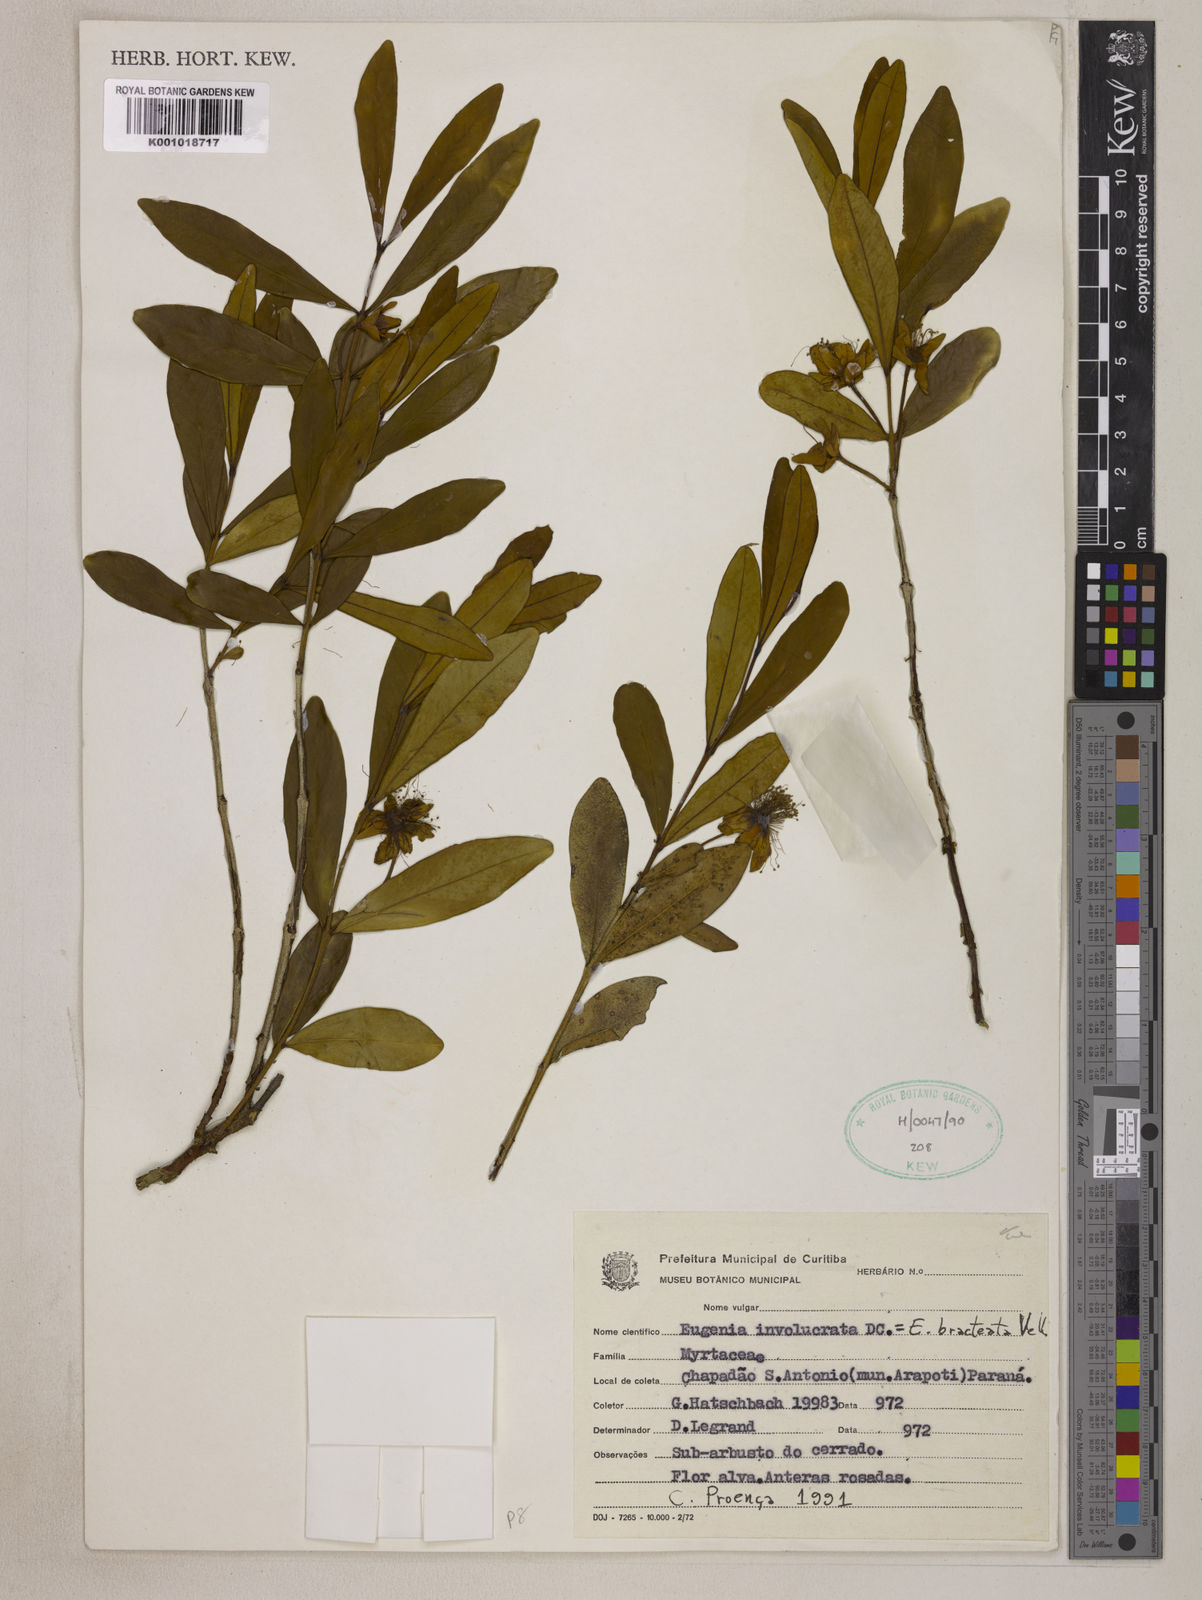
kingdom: Plantae
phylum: Tracheophyta
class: Magnoliopsida
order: Myrtales
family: Myrtaceae
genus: Eugenia
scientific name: Eugenia involucrata
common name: Cherry-of-the-rio grande
